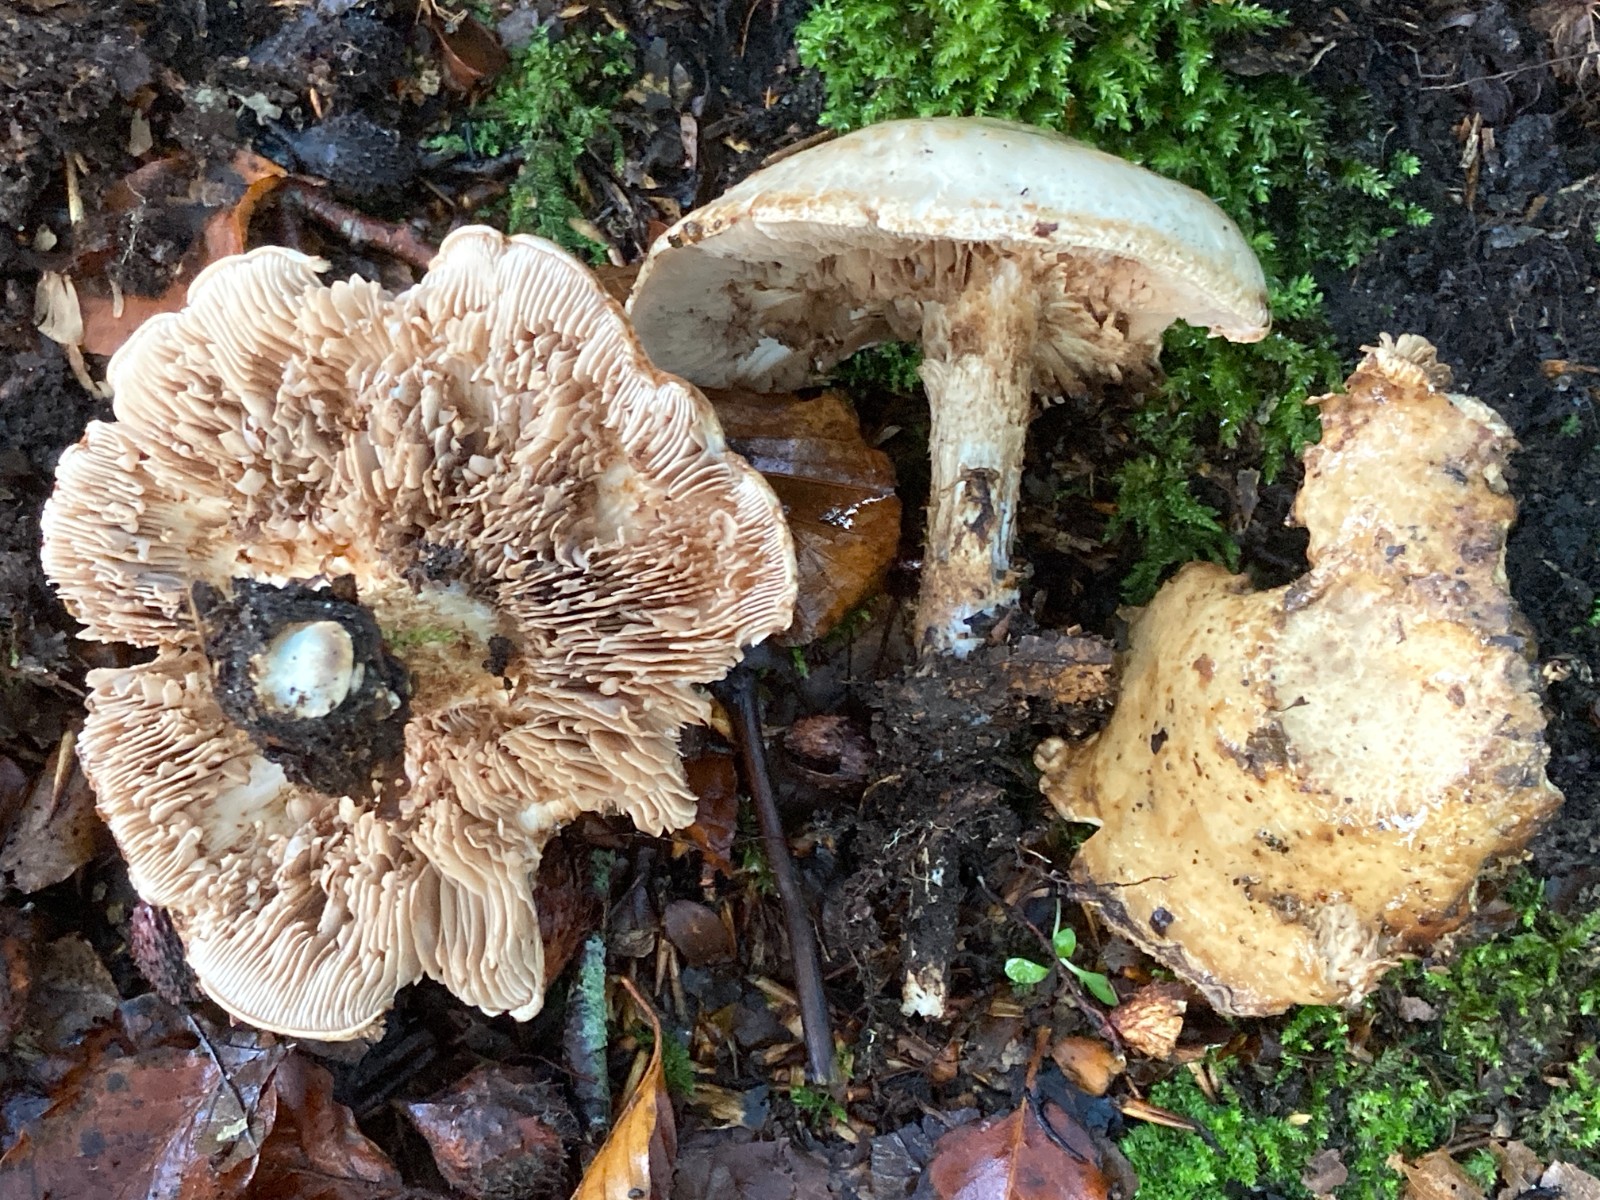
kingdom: Fungi
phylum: Basidiomycota
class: Agaricomycetes
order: Agaricales
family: Hymenogastraceae
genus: Hebeloma
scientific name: Hebeloma radicosum
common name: pælerods-tåreblad
